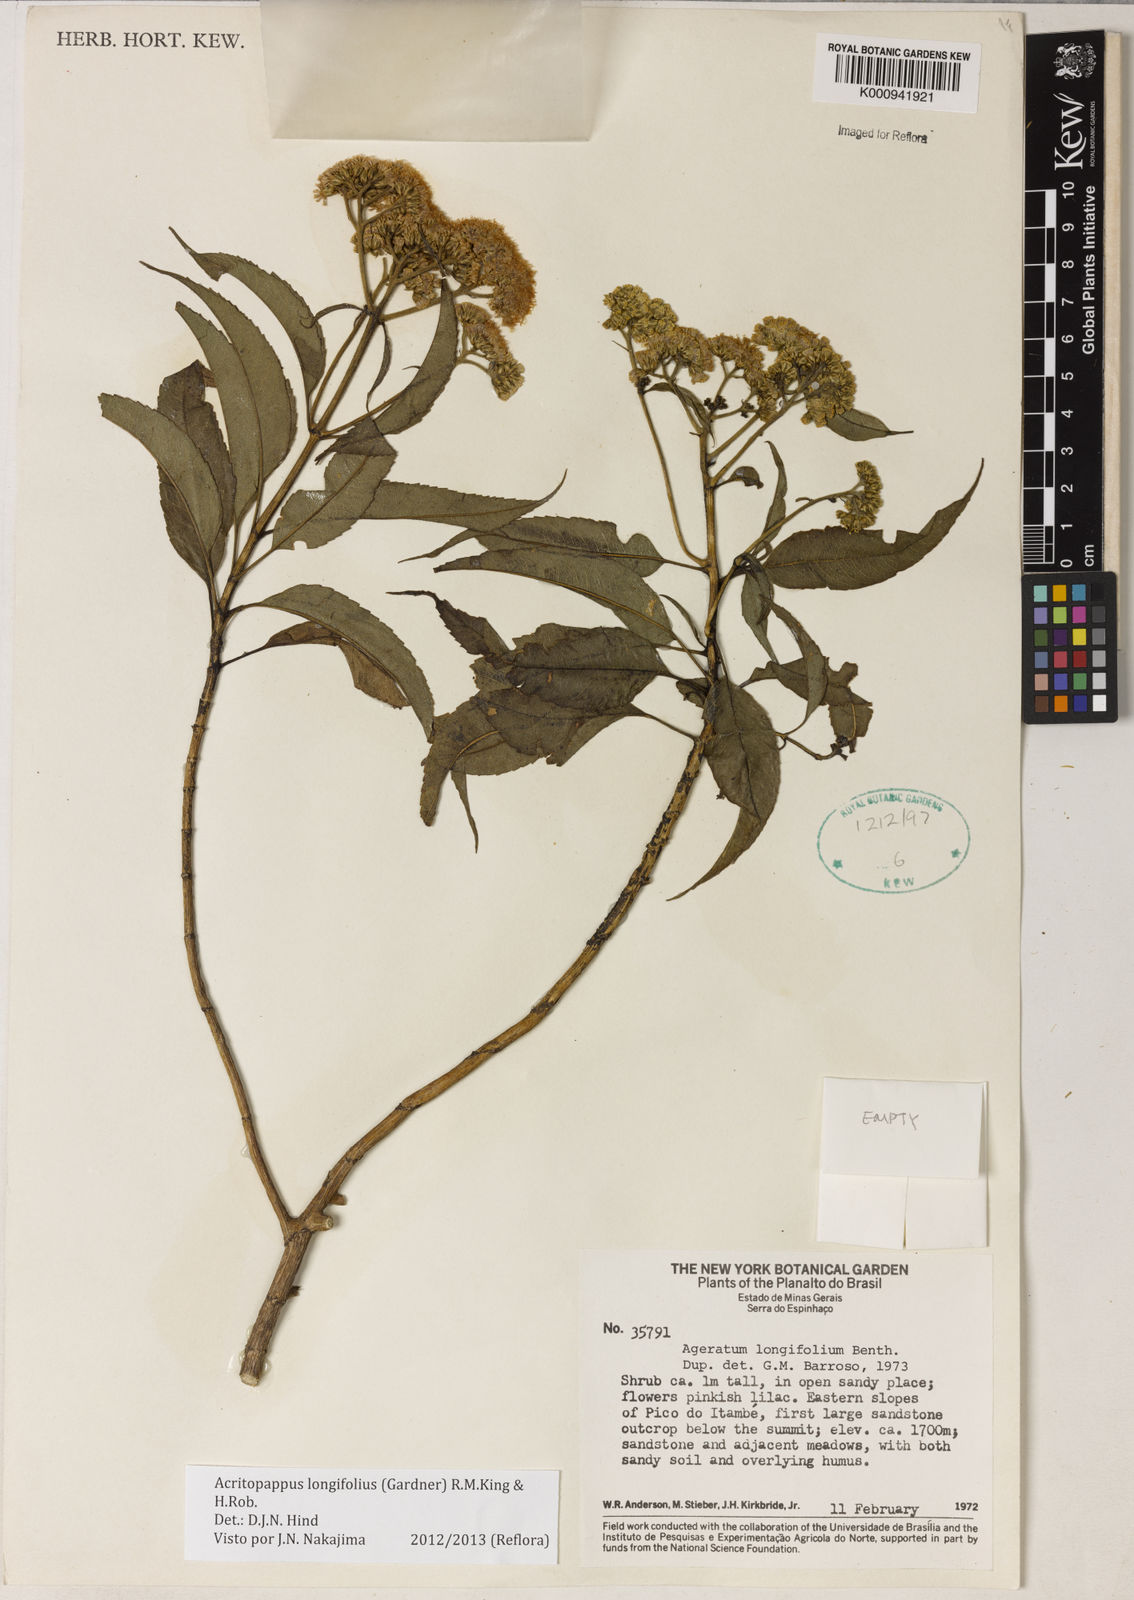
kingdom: Plantae
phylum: Tracheophyta
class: Magnoliopsida
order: Asterales
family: Asteraceae
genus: Acritopappus
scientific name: Acritopappus longifolius
